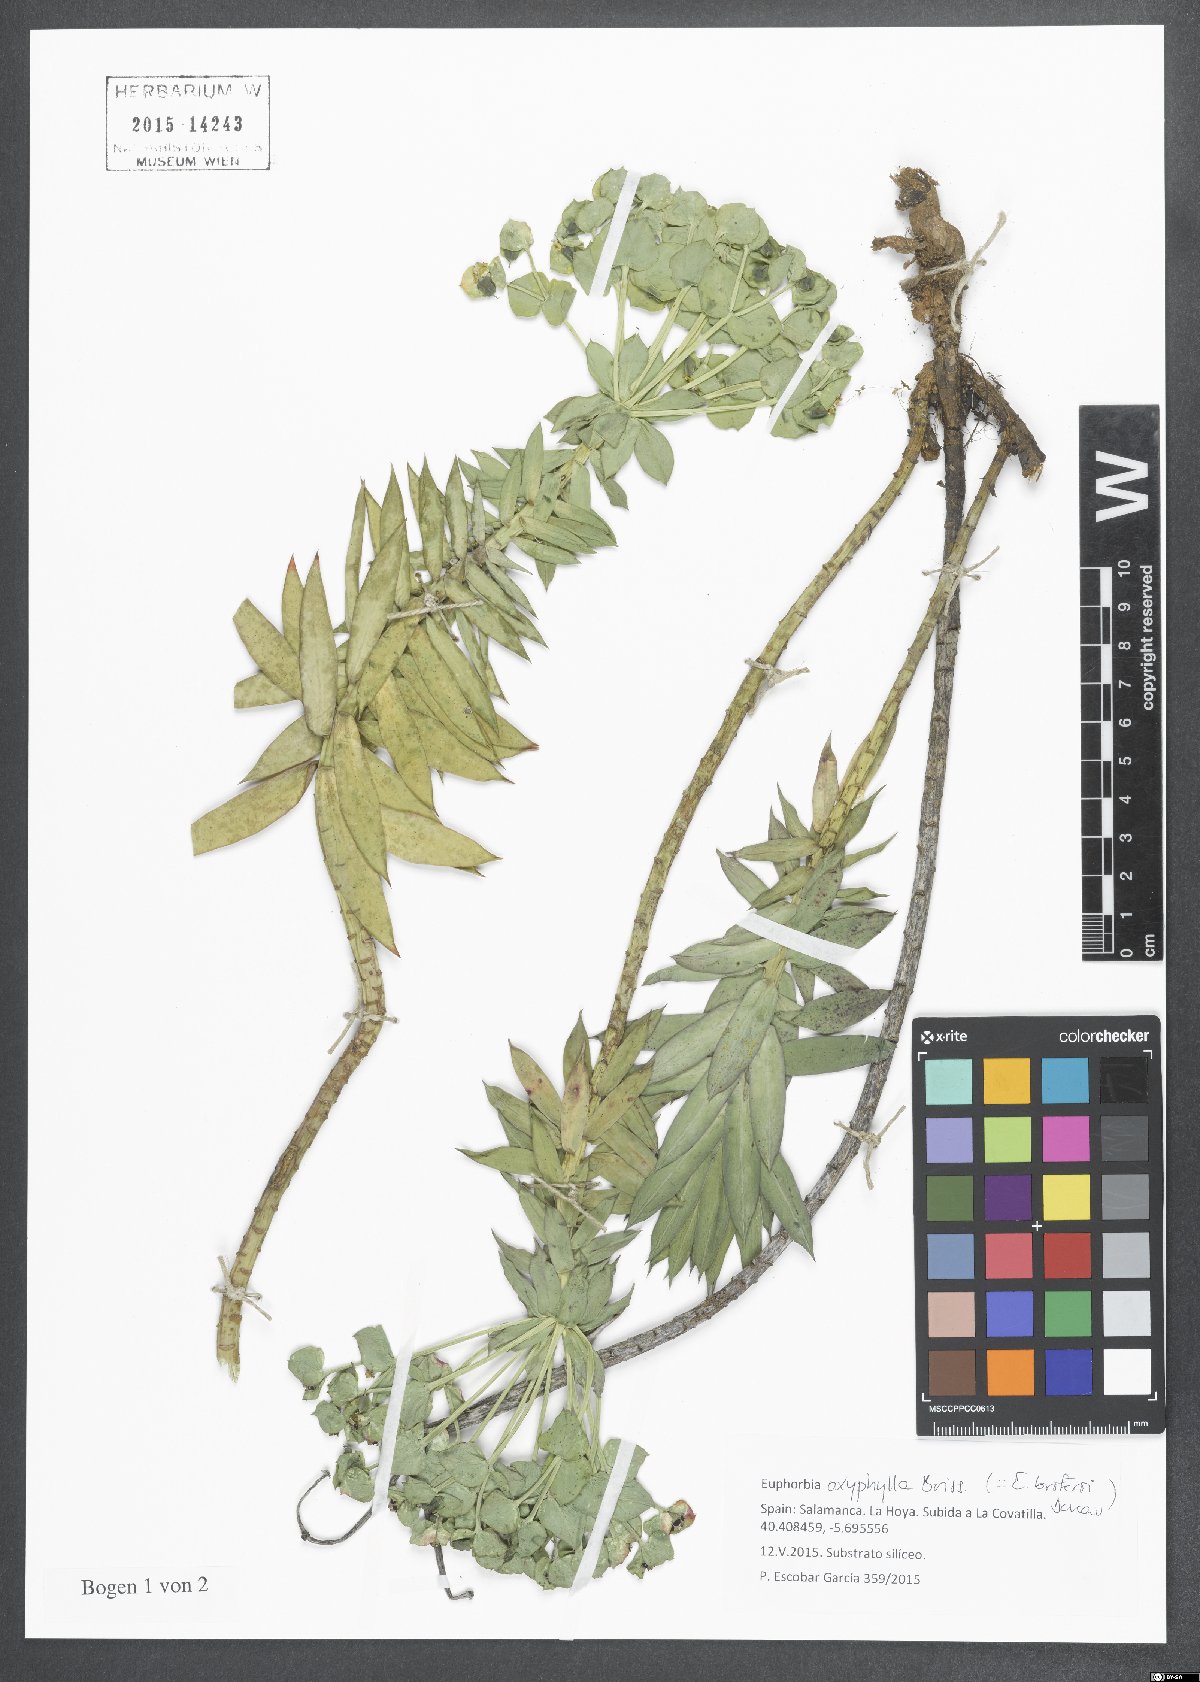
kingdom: Plantae
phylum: Tracheophyta
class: Magnoliopsida
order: Malpighiales
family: Euphorbiaceae
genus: Euphorbia
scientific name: Euphorbia oxyphylla
